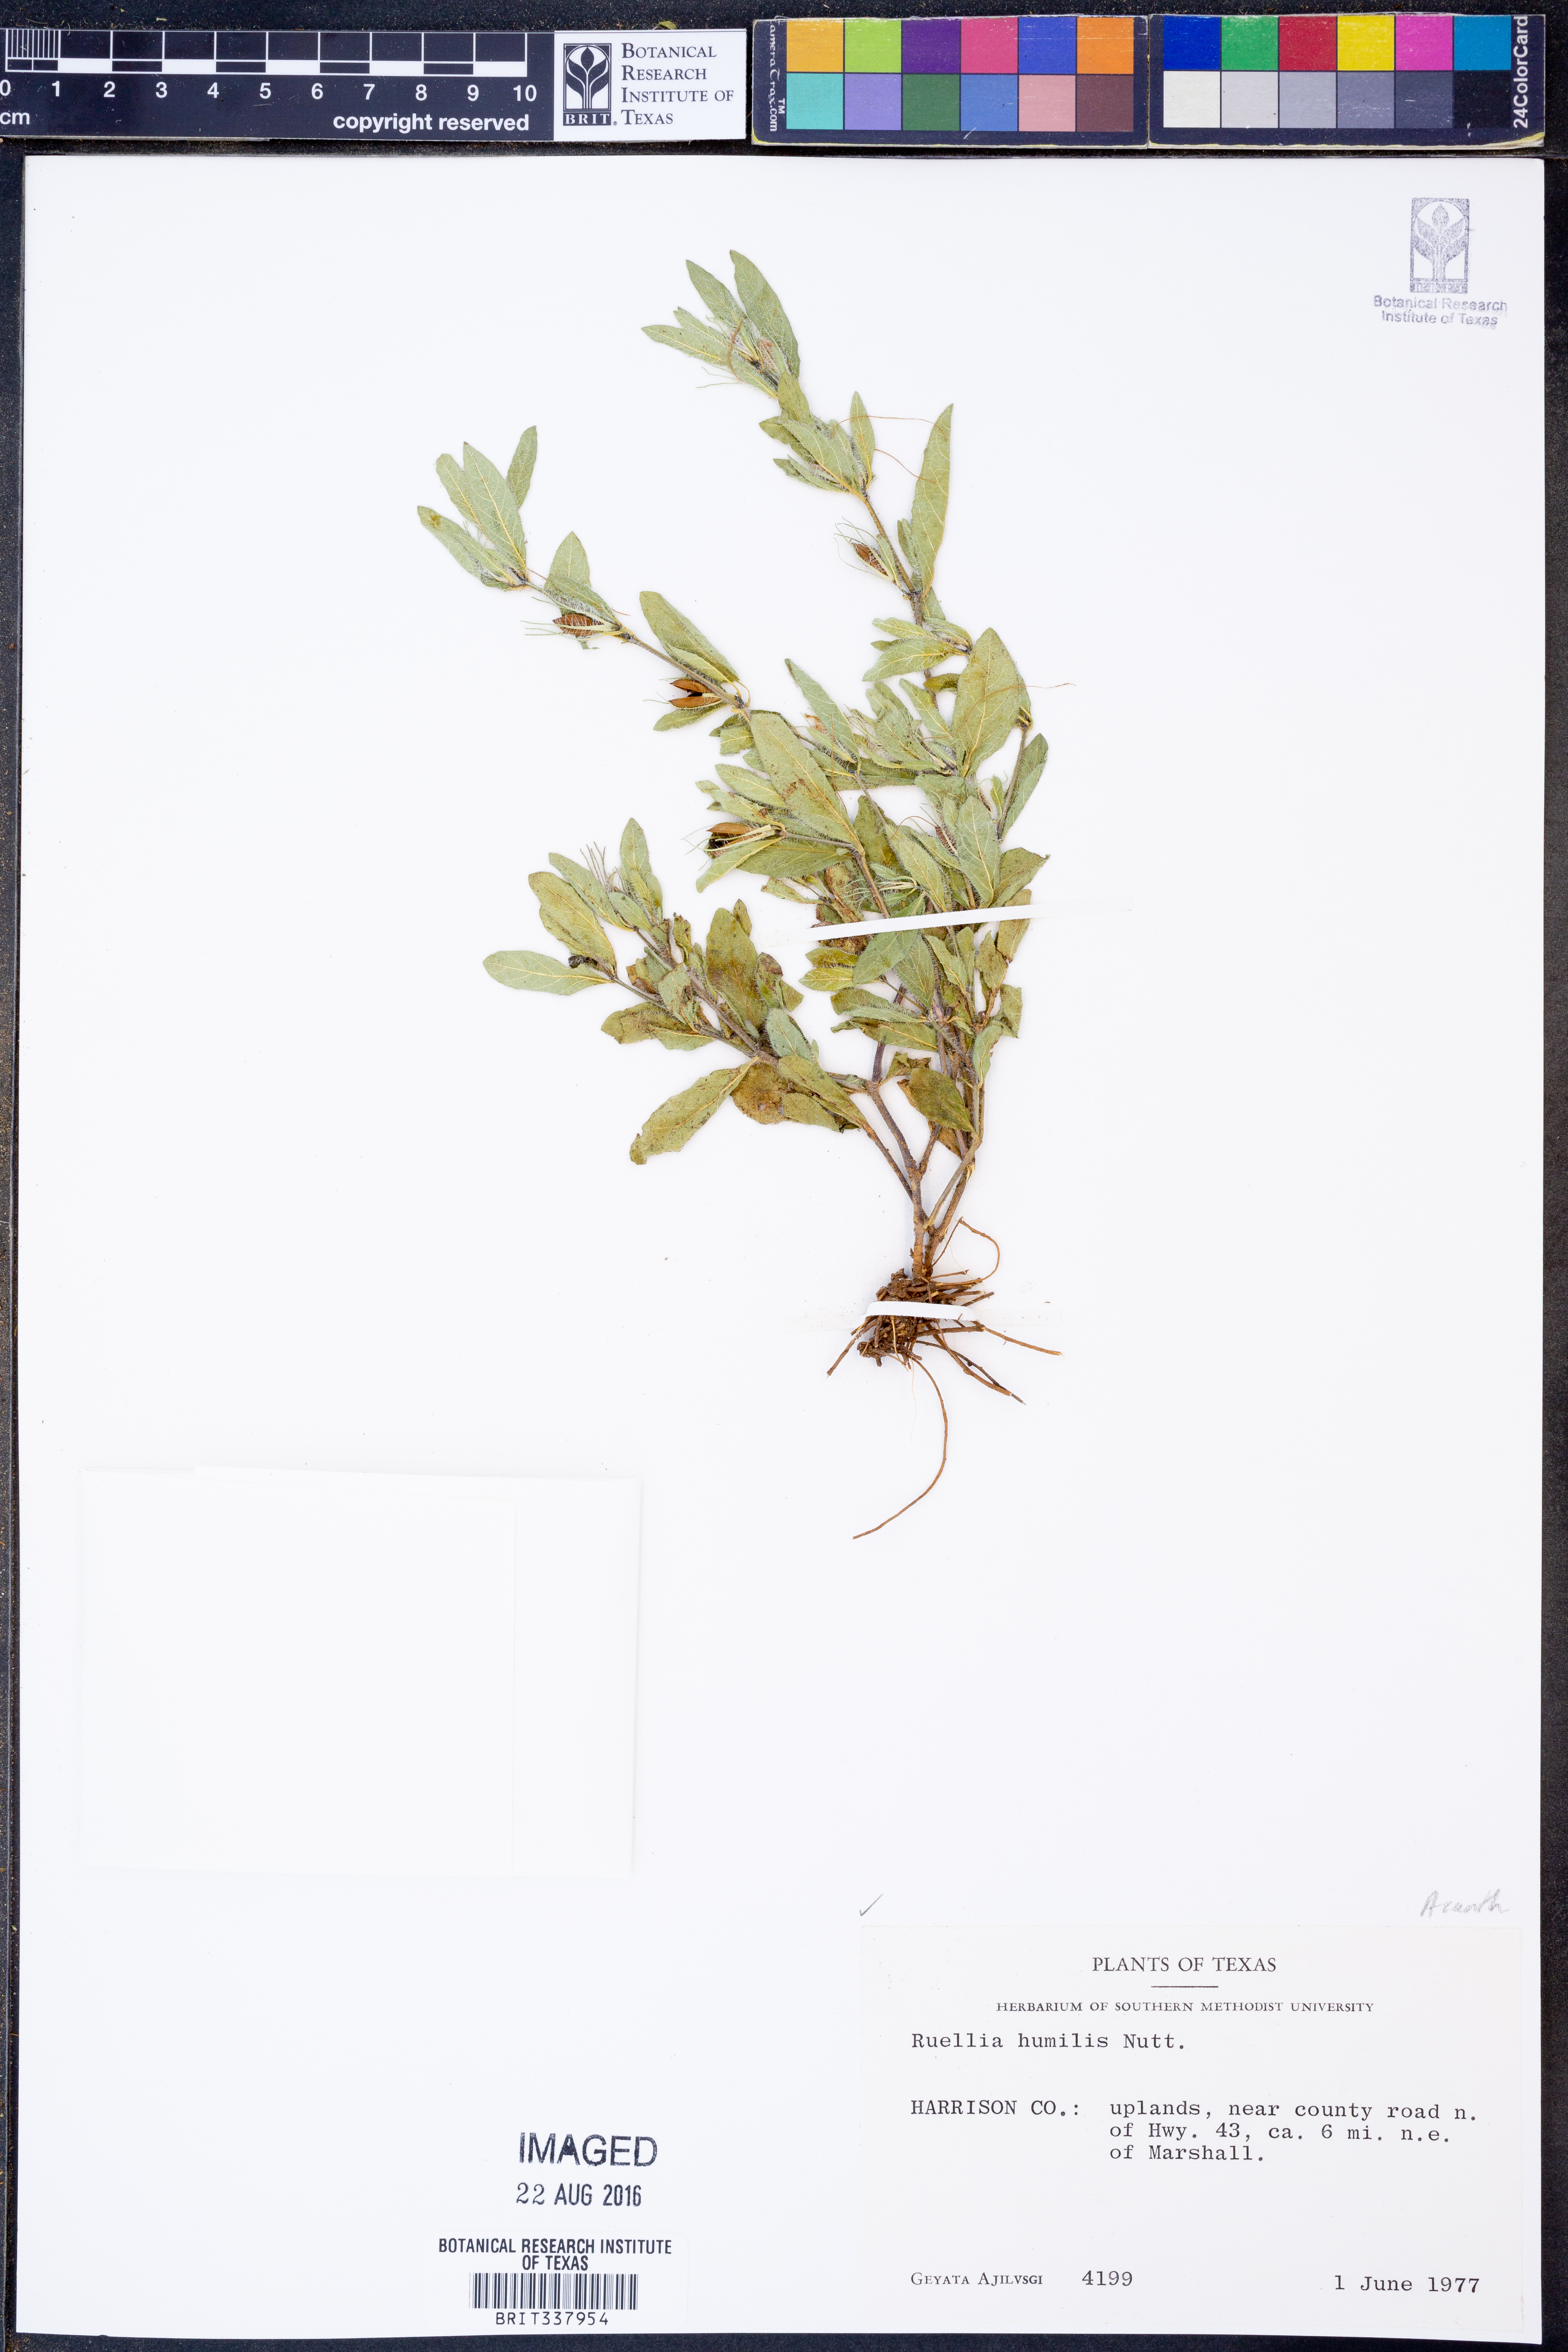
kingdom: Plantae
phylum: Tracheophyta
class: Magnoliopsida
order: Lamiales
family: Acanthaceae
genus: Ruellia
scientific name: Ruellia humilis
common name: Fringe-leaf ruellia
